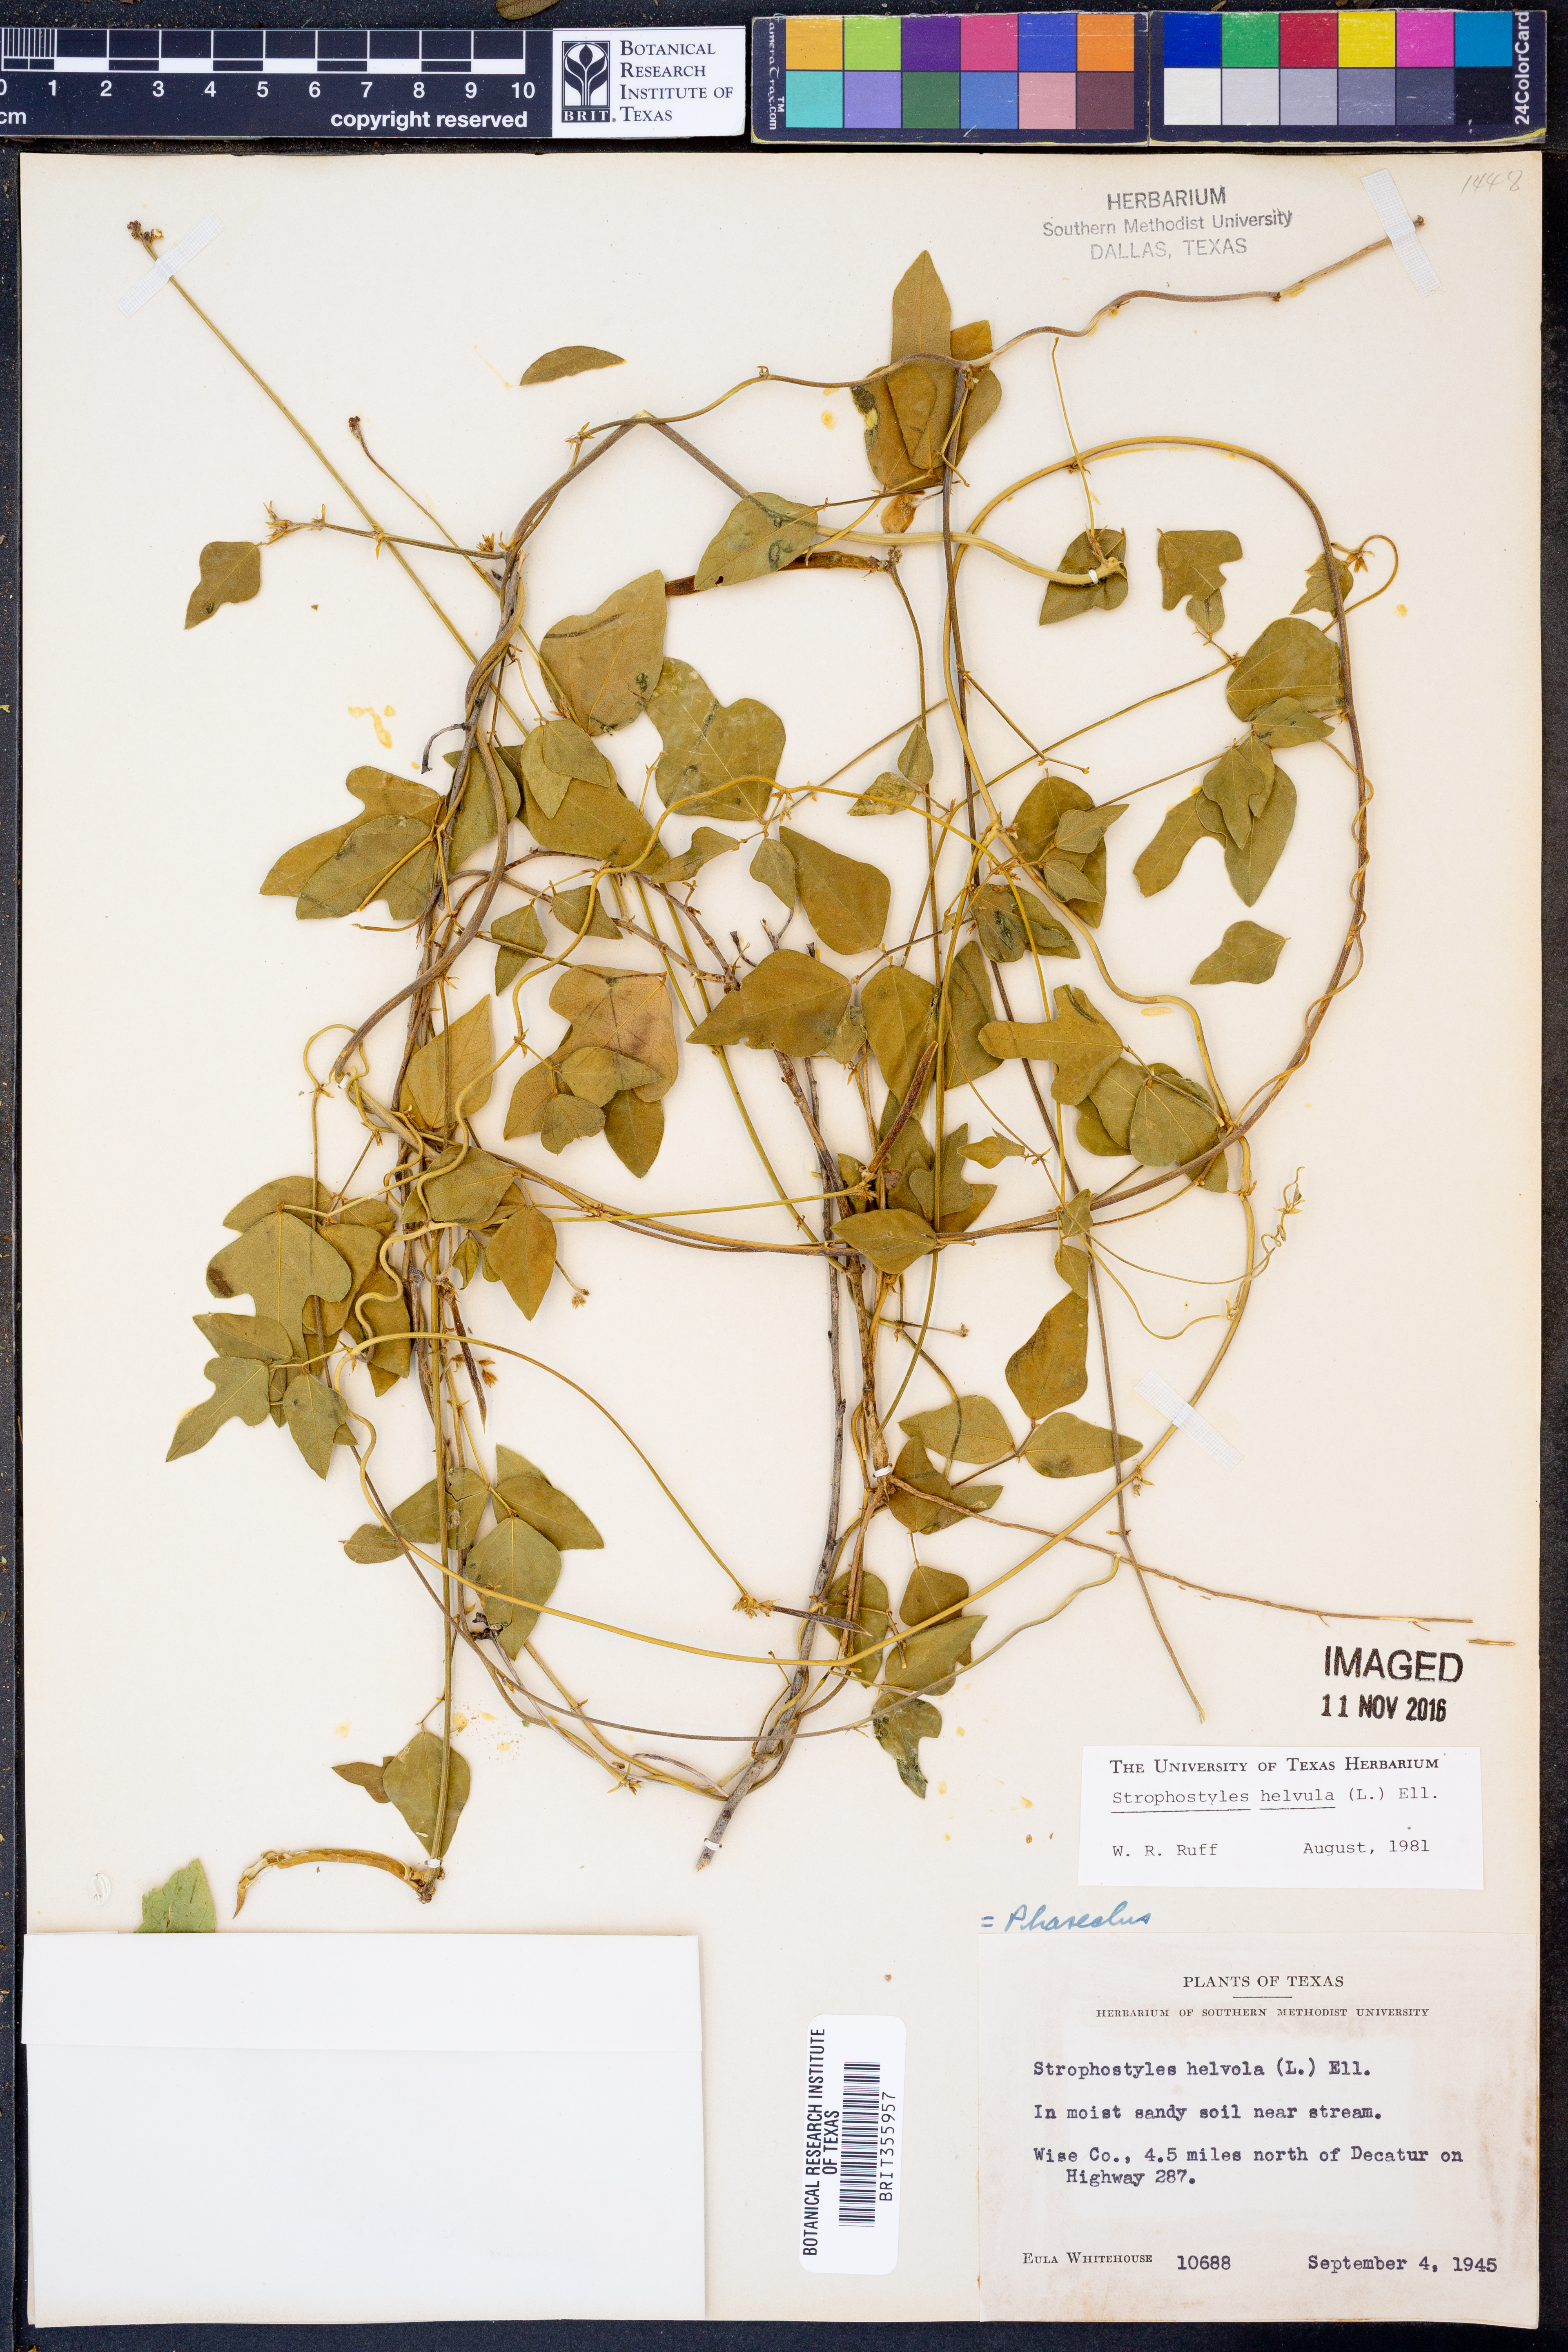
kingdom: Plantae
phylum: Tracheophyta
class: Magnoliopsida
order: Fabales
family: Fabaceae
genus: Strophostyles
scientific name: Strophostyles helvula
